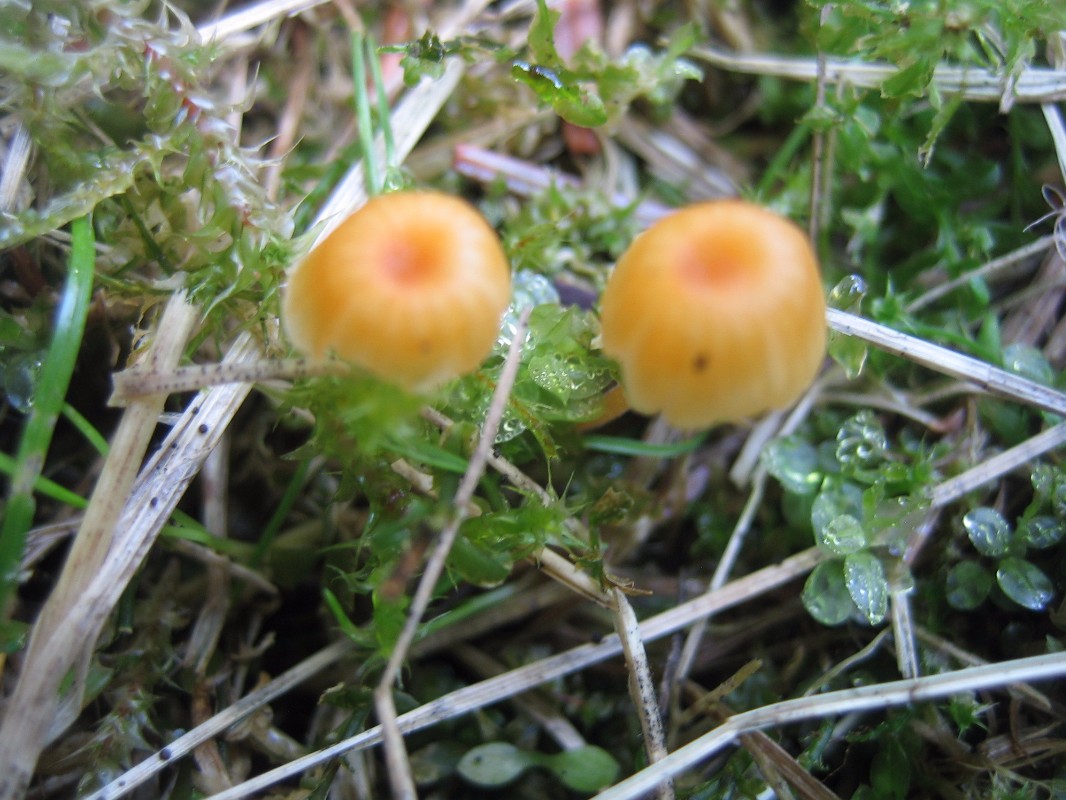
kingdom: Fungi
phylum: Basidiomycota
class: Agaricomycetes
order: Hymenochaetales
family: Rickenellaceae
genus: Rickenella
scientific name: Rickenella fibula
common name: orange mosnavlehat
